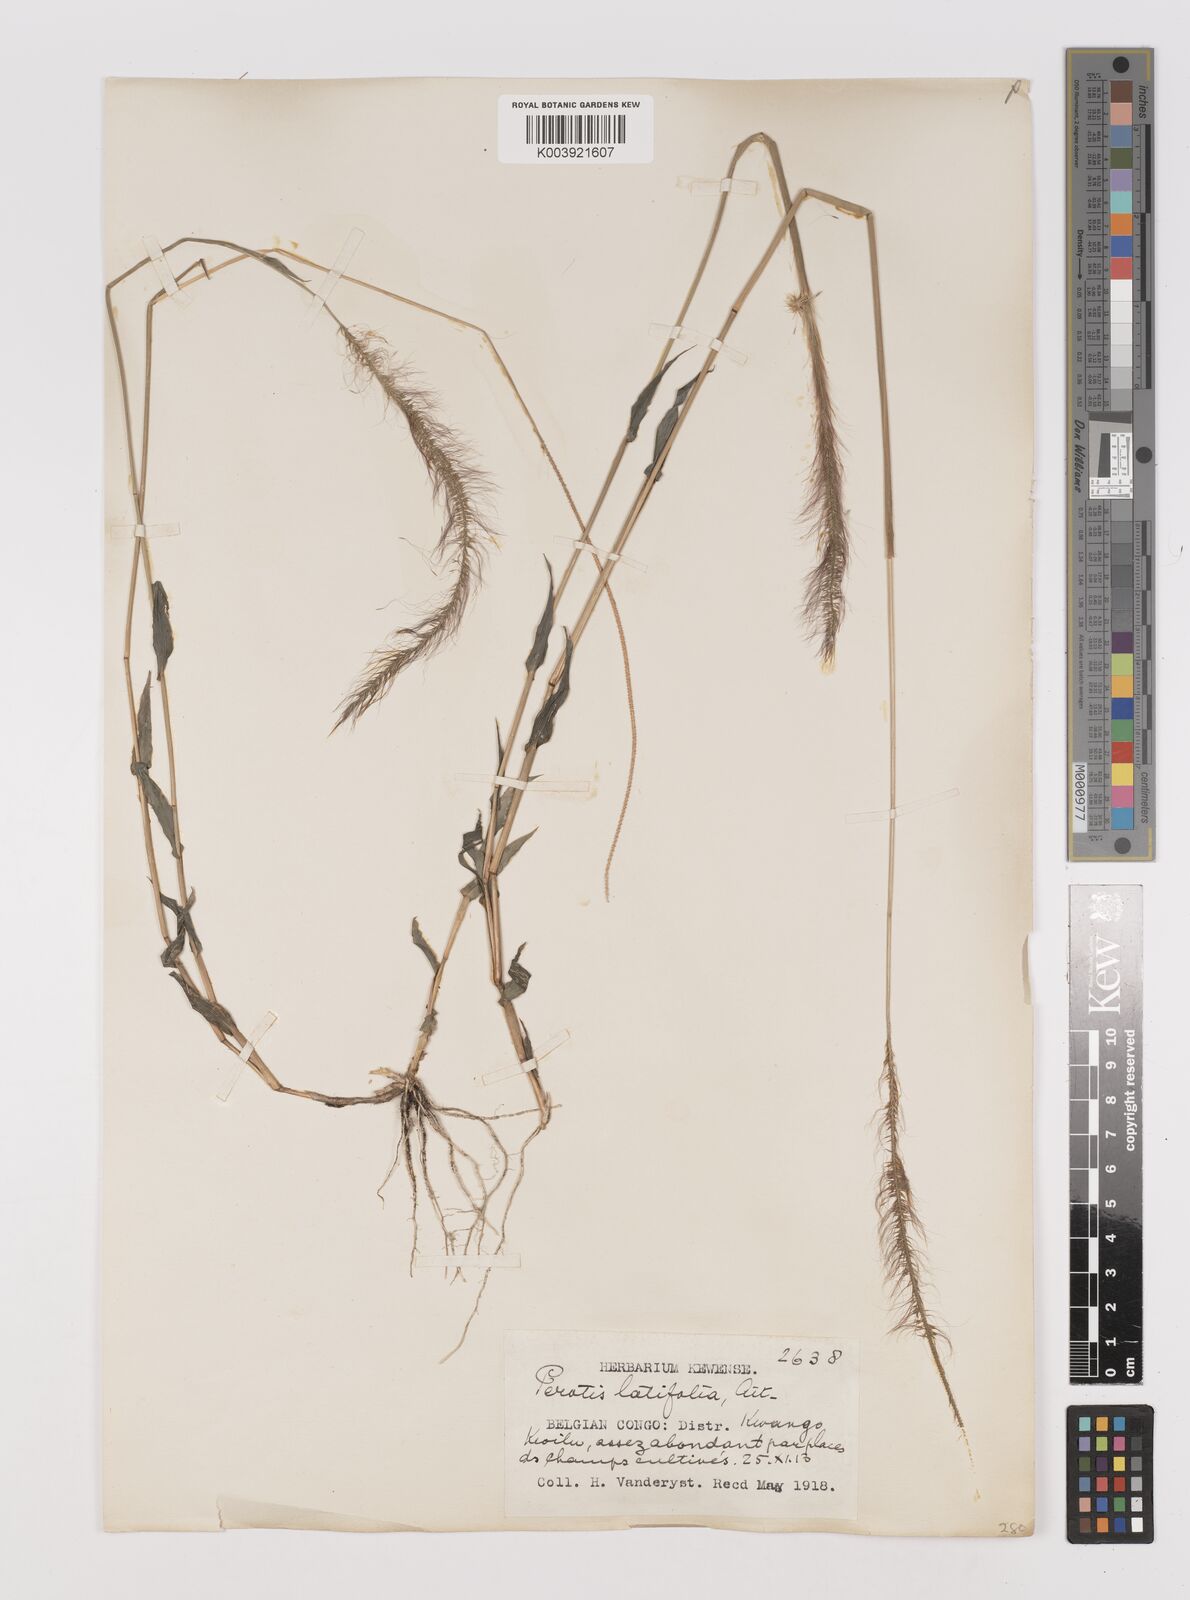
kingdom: Plantae
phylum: Tracheophyta
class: Liliopsida
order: Poales
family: Poaceae
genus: Perotis
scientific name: Perotis patens
